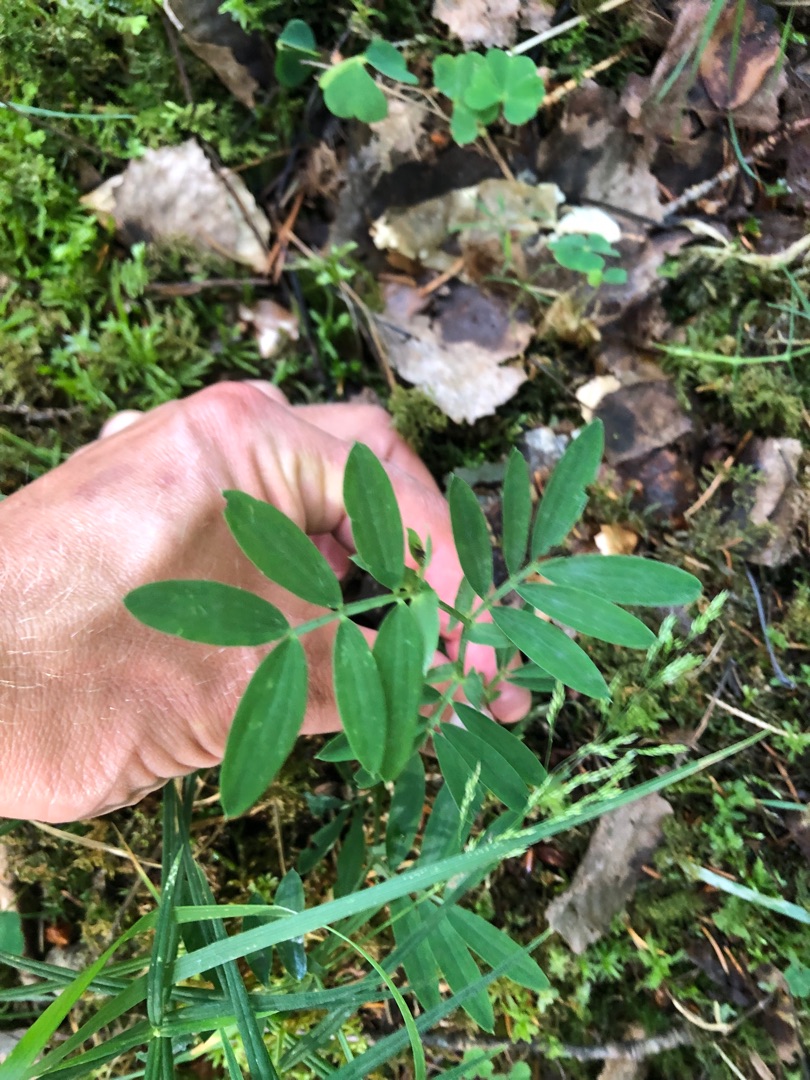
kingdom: Plantae
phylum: Tracheophyta
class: Magnoliopsida
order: Fabales
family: Fabaceae
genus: Lathyrus
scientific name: Lathyrus linifolius
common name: Krat-fladbælg
